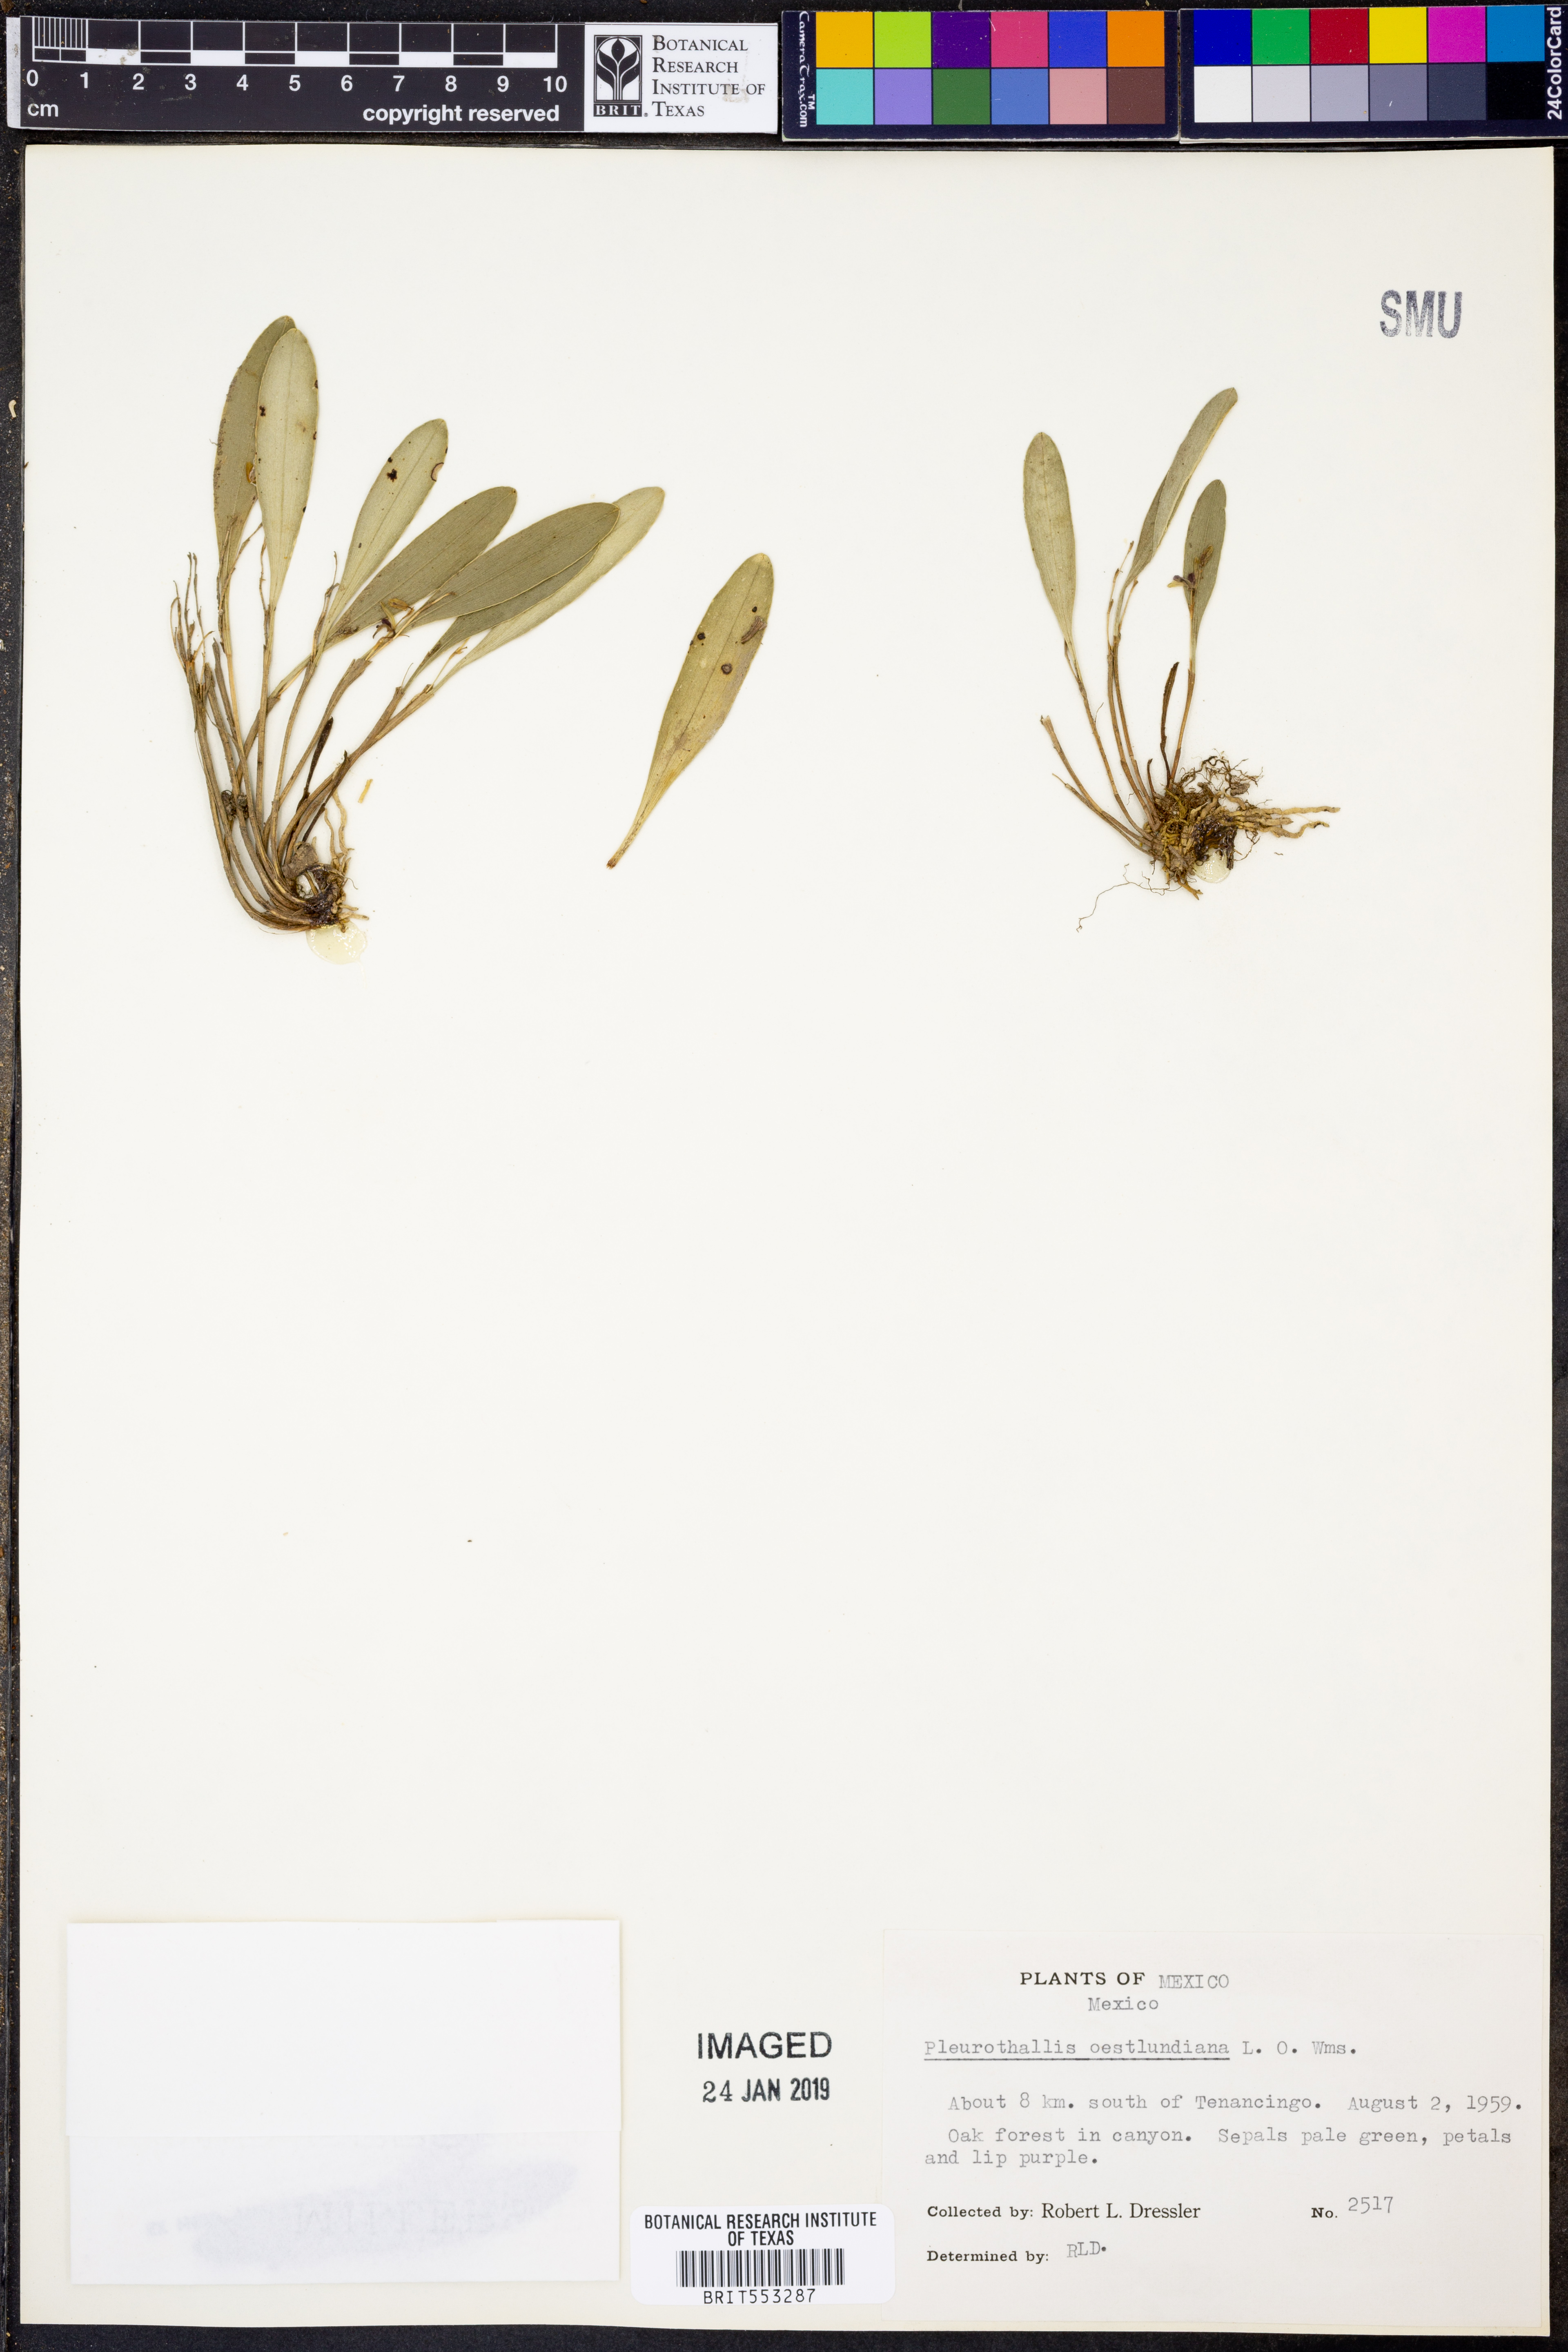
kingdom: Plantae
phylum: Tracheophyta
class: Liliopsida
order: Asparagales
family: Orchidaceae
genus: Stelis
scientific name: Stelis oestlundiana
